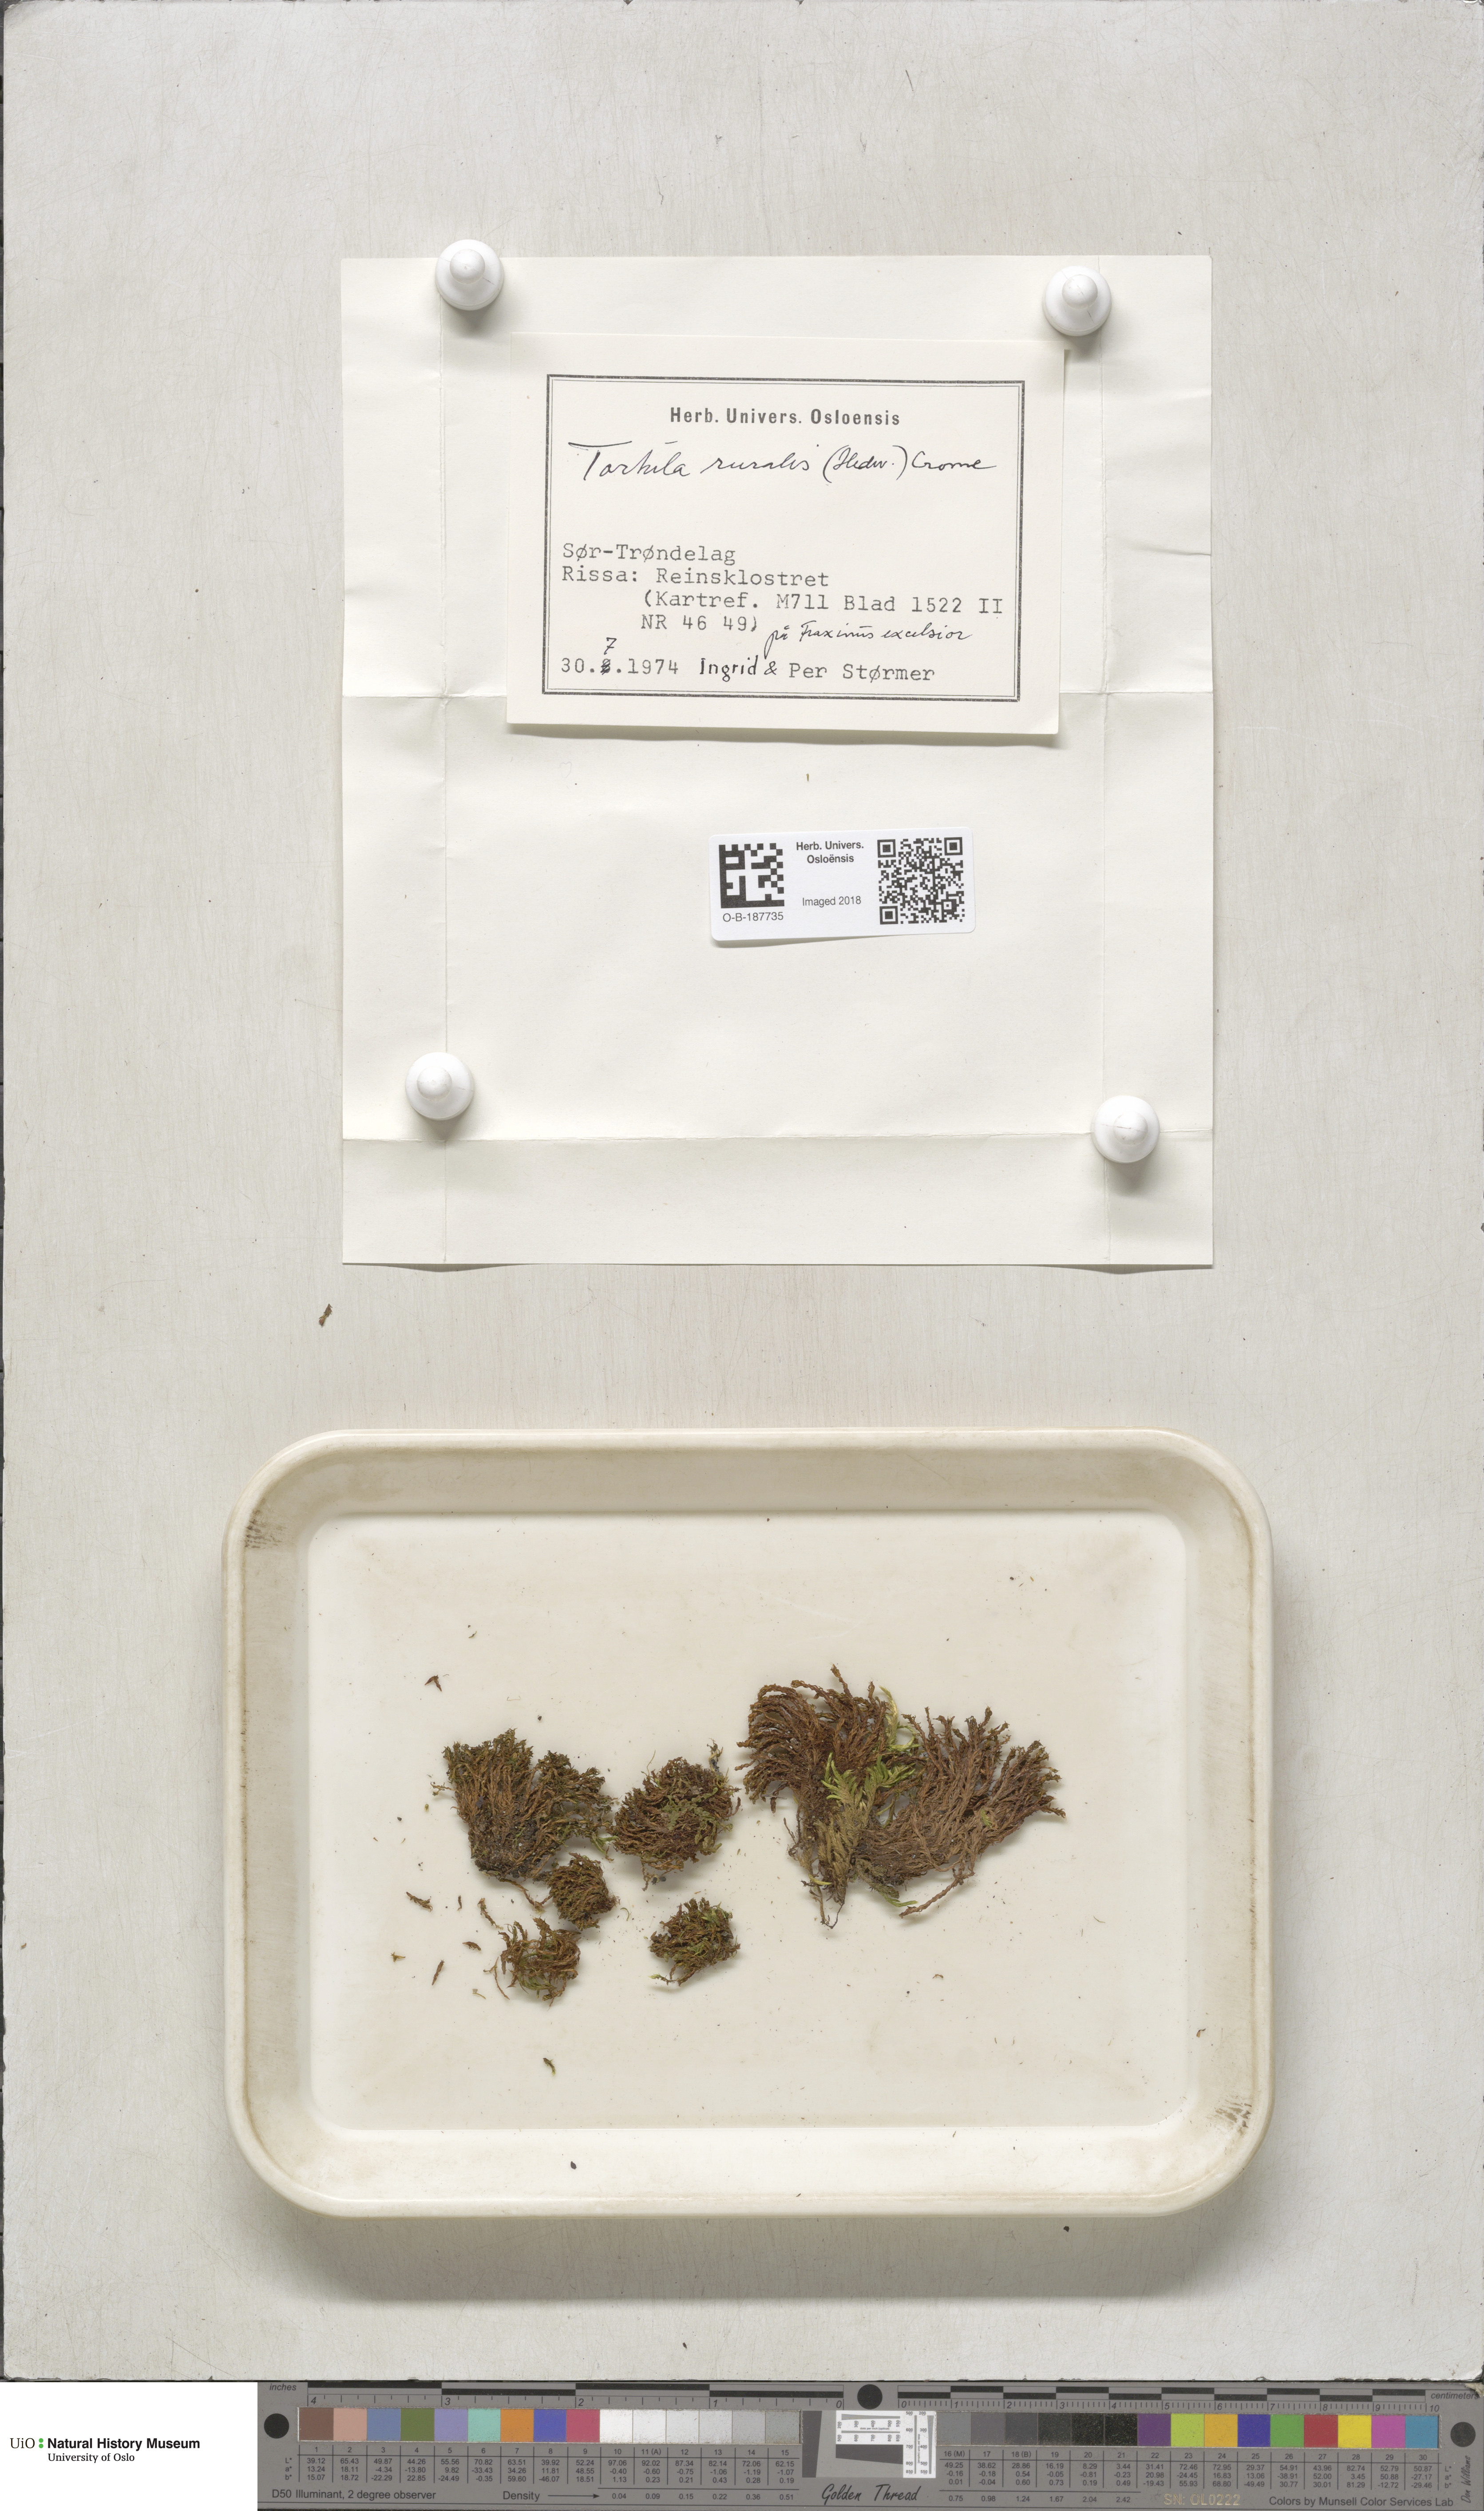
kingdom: Plantae
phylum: Bryophyta
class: Bryopsida
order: Pottiales
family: Pottiaceae
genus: Syntrichia
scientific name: Syntrichia ruralis
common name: Sidewalk screw moss
